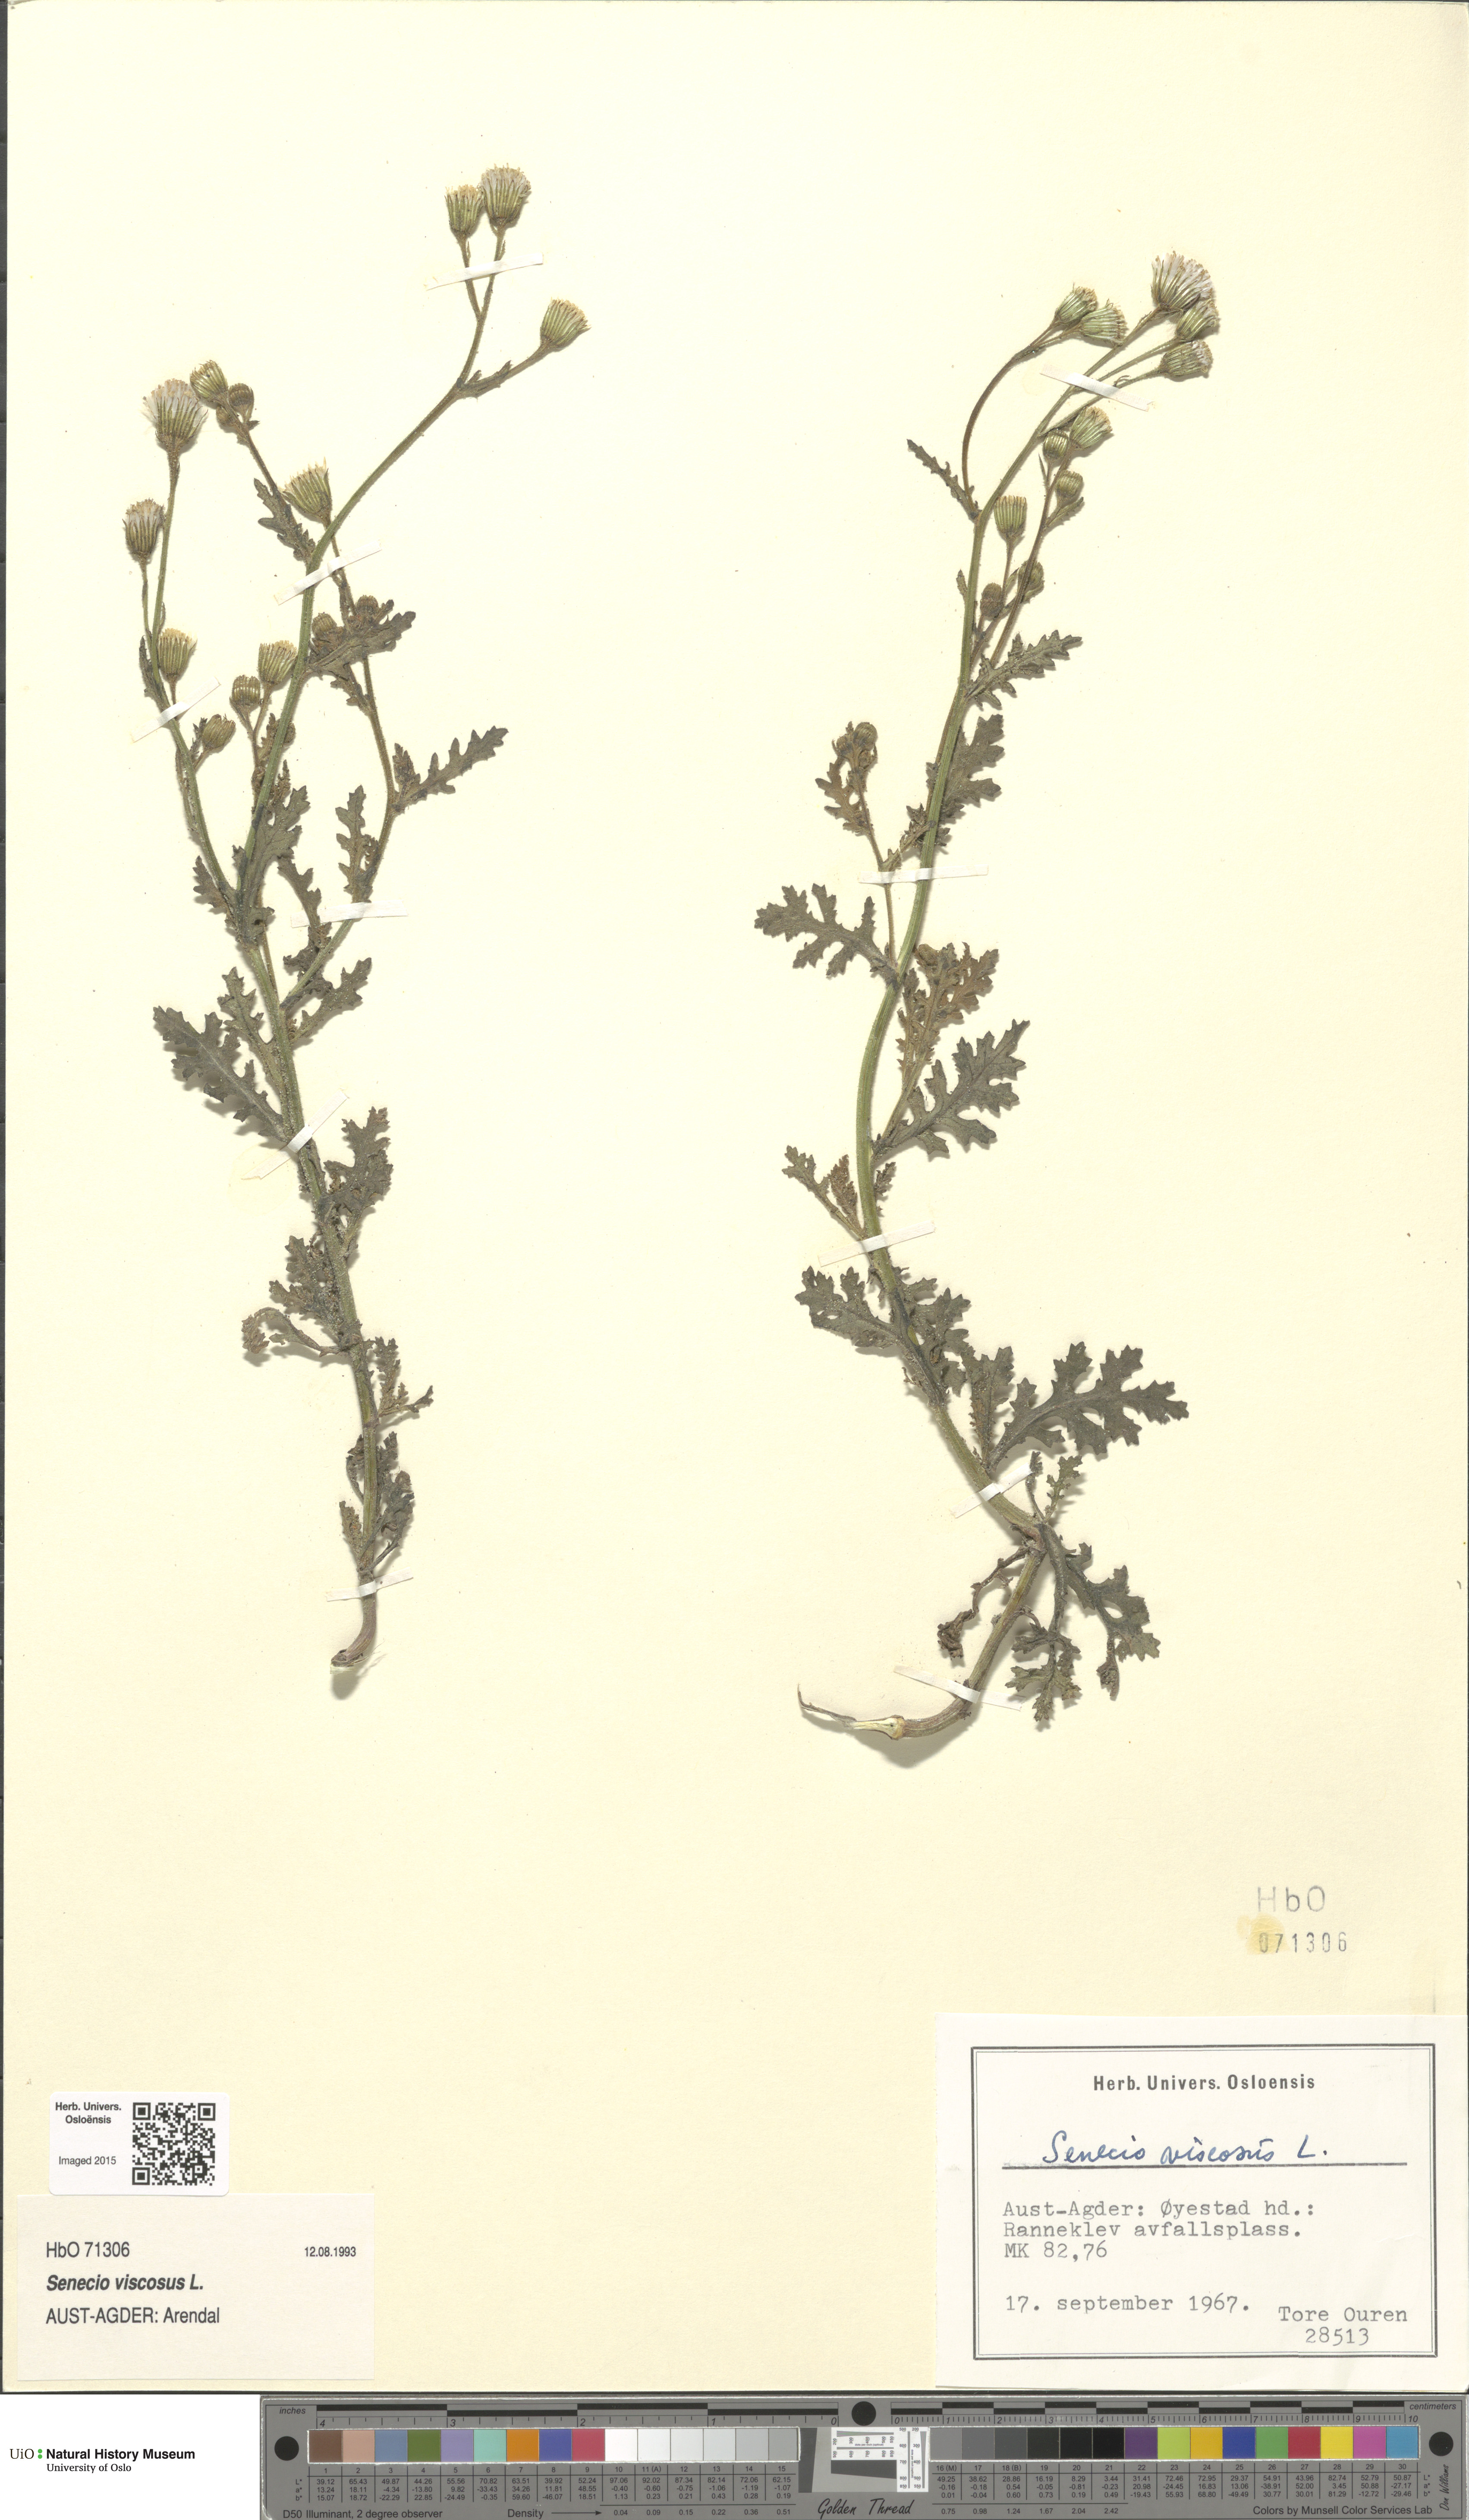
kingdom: Plantae
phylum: Tracheophyta
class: Magnoliopsida
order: Asterales
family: Asteraceae
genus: Senecio
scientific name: Senecio viscosus
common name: Sticky groundsel
